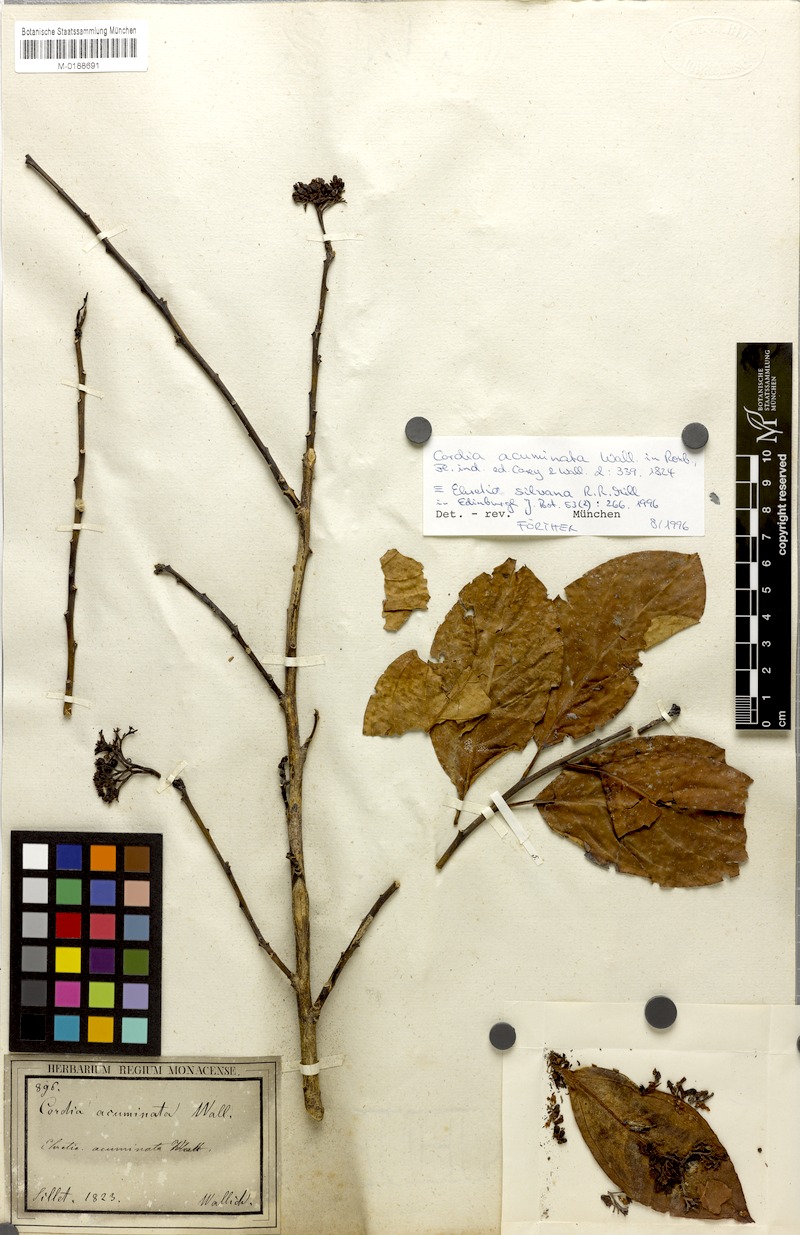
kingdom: Plantae
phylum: Tracheophyta
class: Magnoliopsida
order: Boraginales
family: Ehretiaceae
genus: Ehretia
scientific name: Ehretia wallichiana
